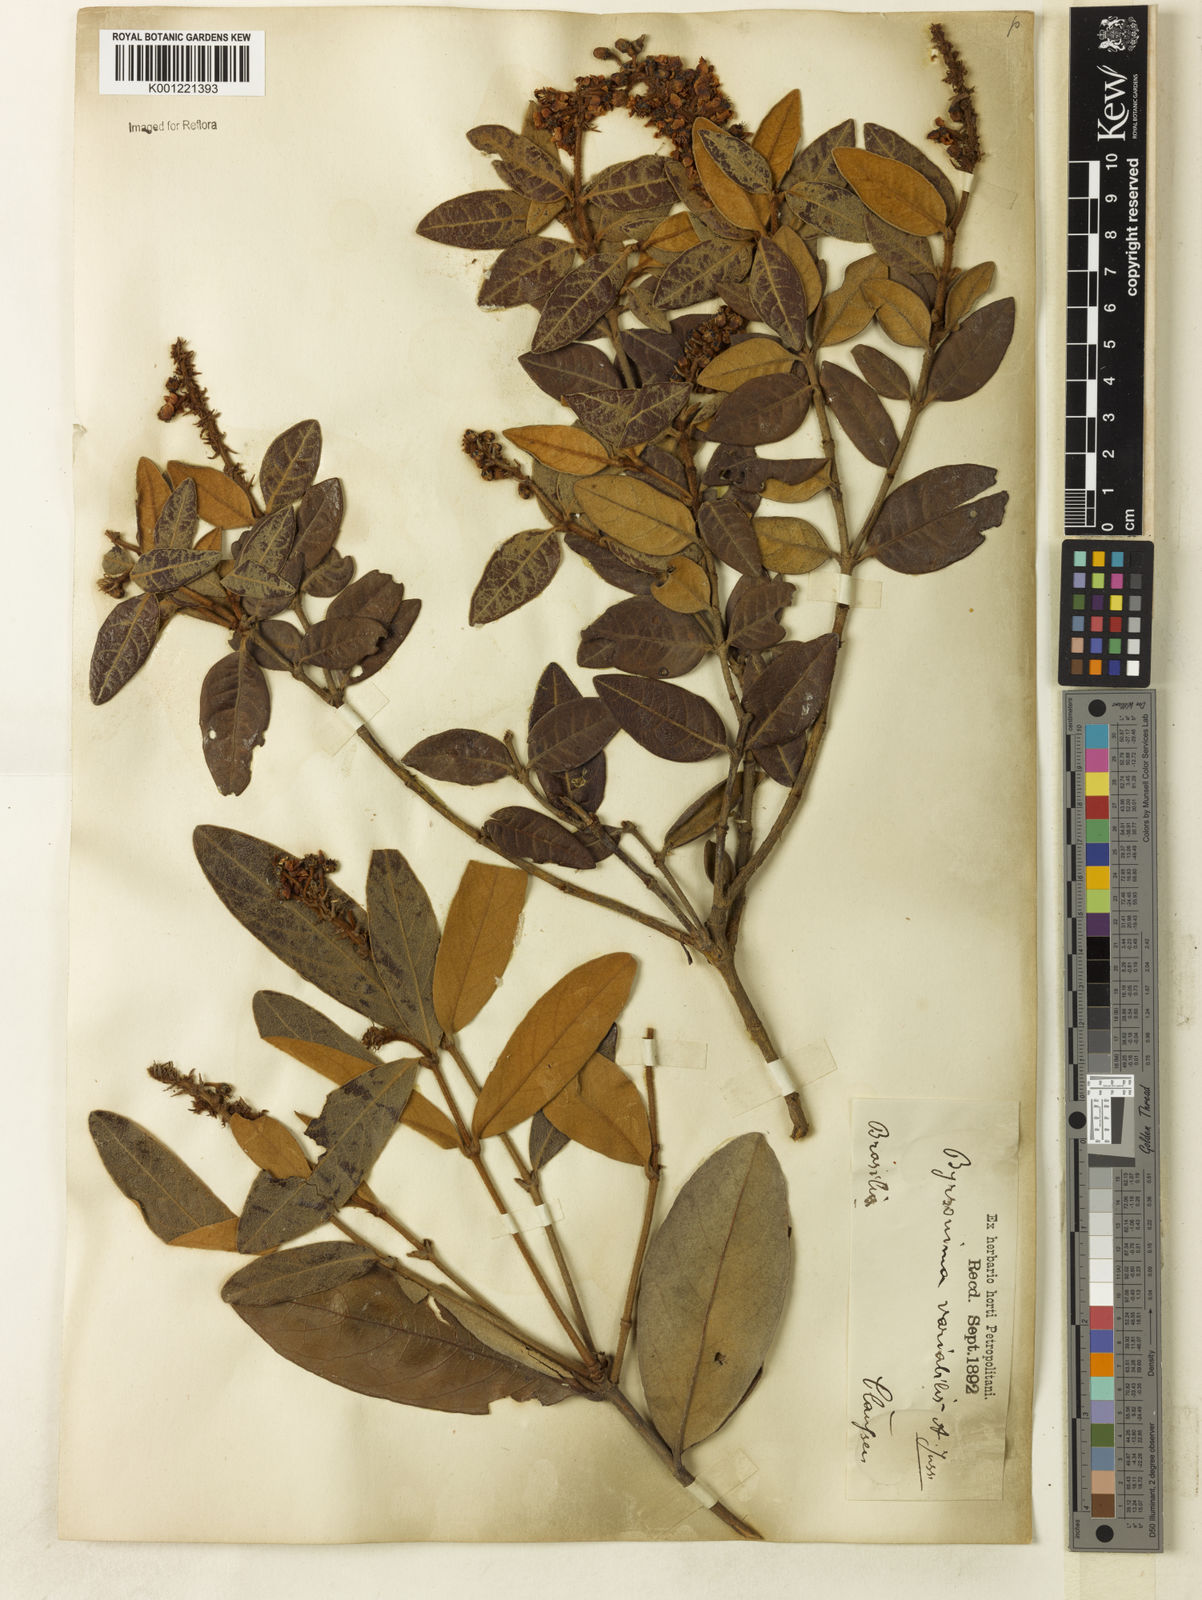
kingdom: Plantae
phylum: Tracheophyta
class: Magnoliopsida
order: Malpighiales
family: Malpighiaceae
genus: Byrsonima
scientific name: Byrsonima variabilis
